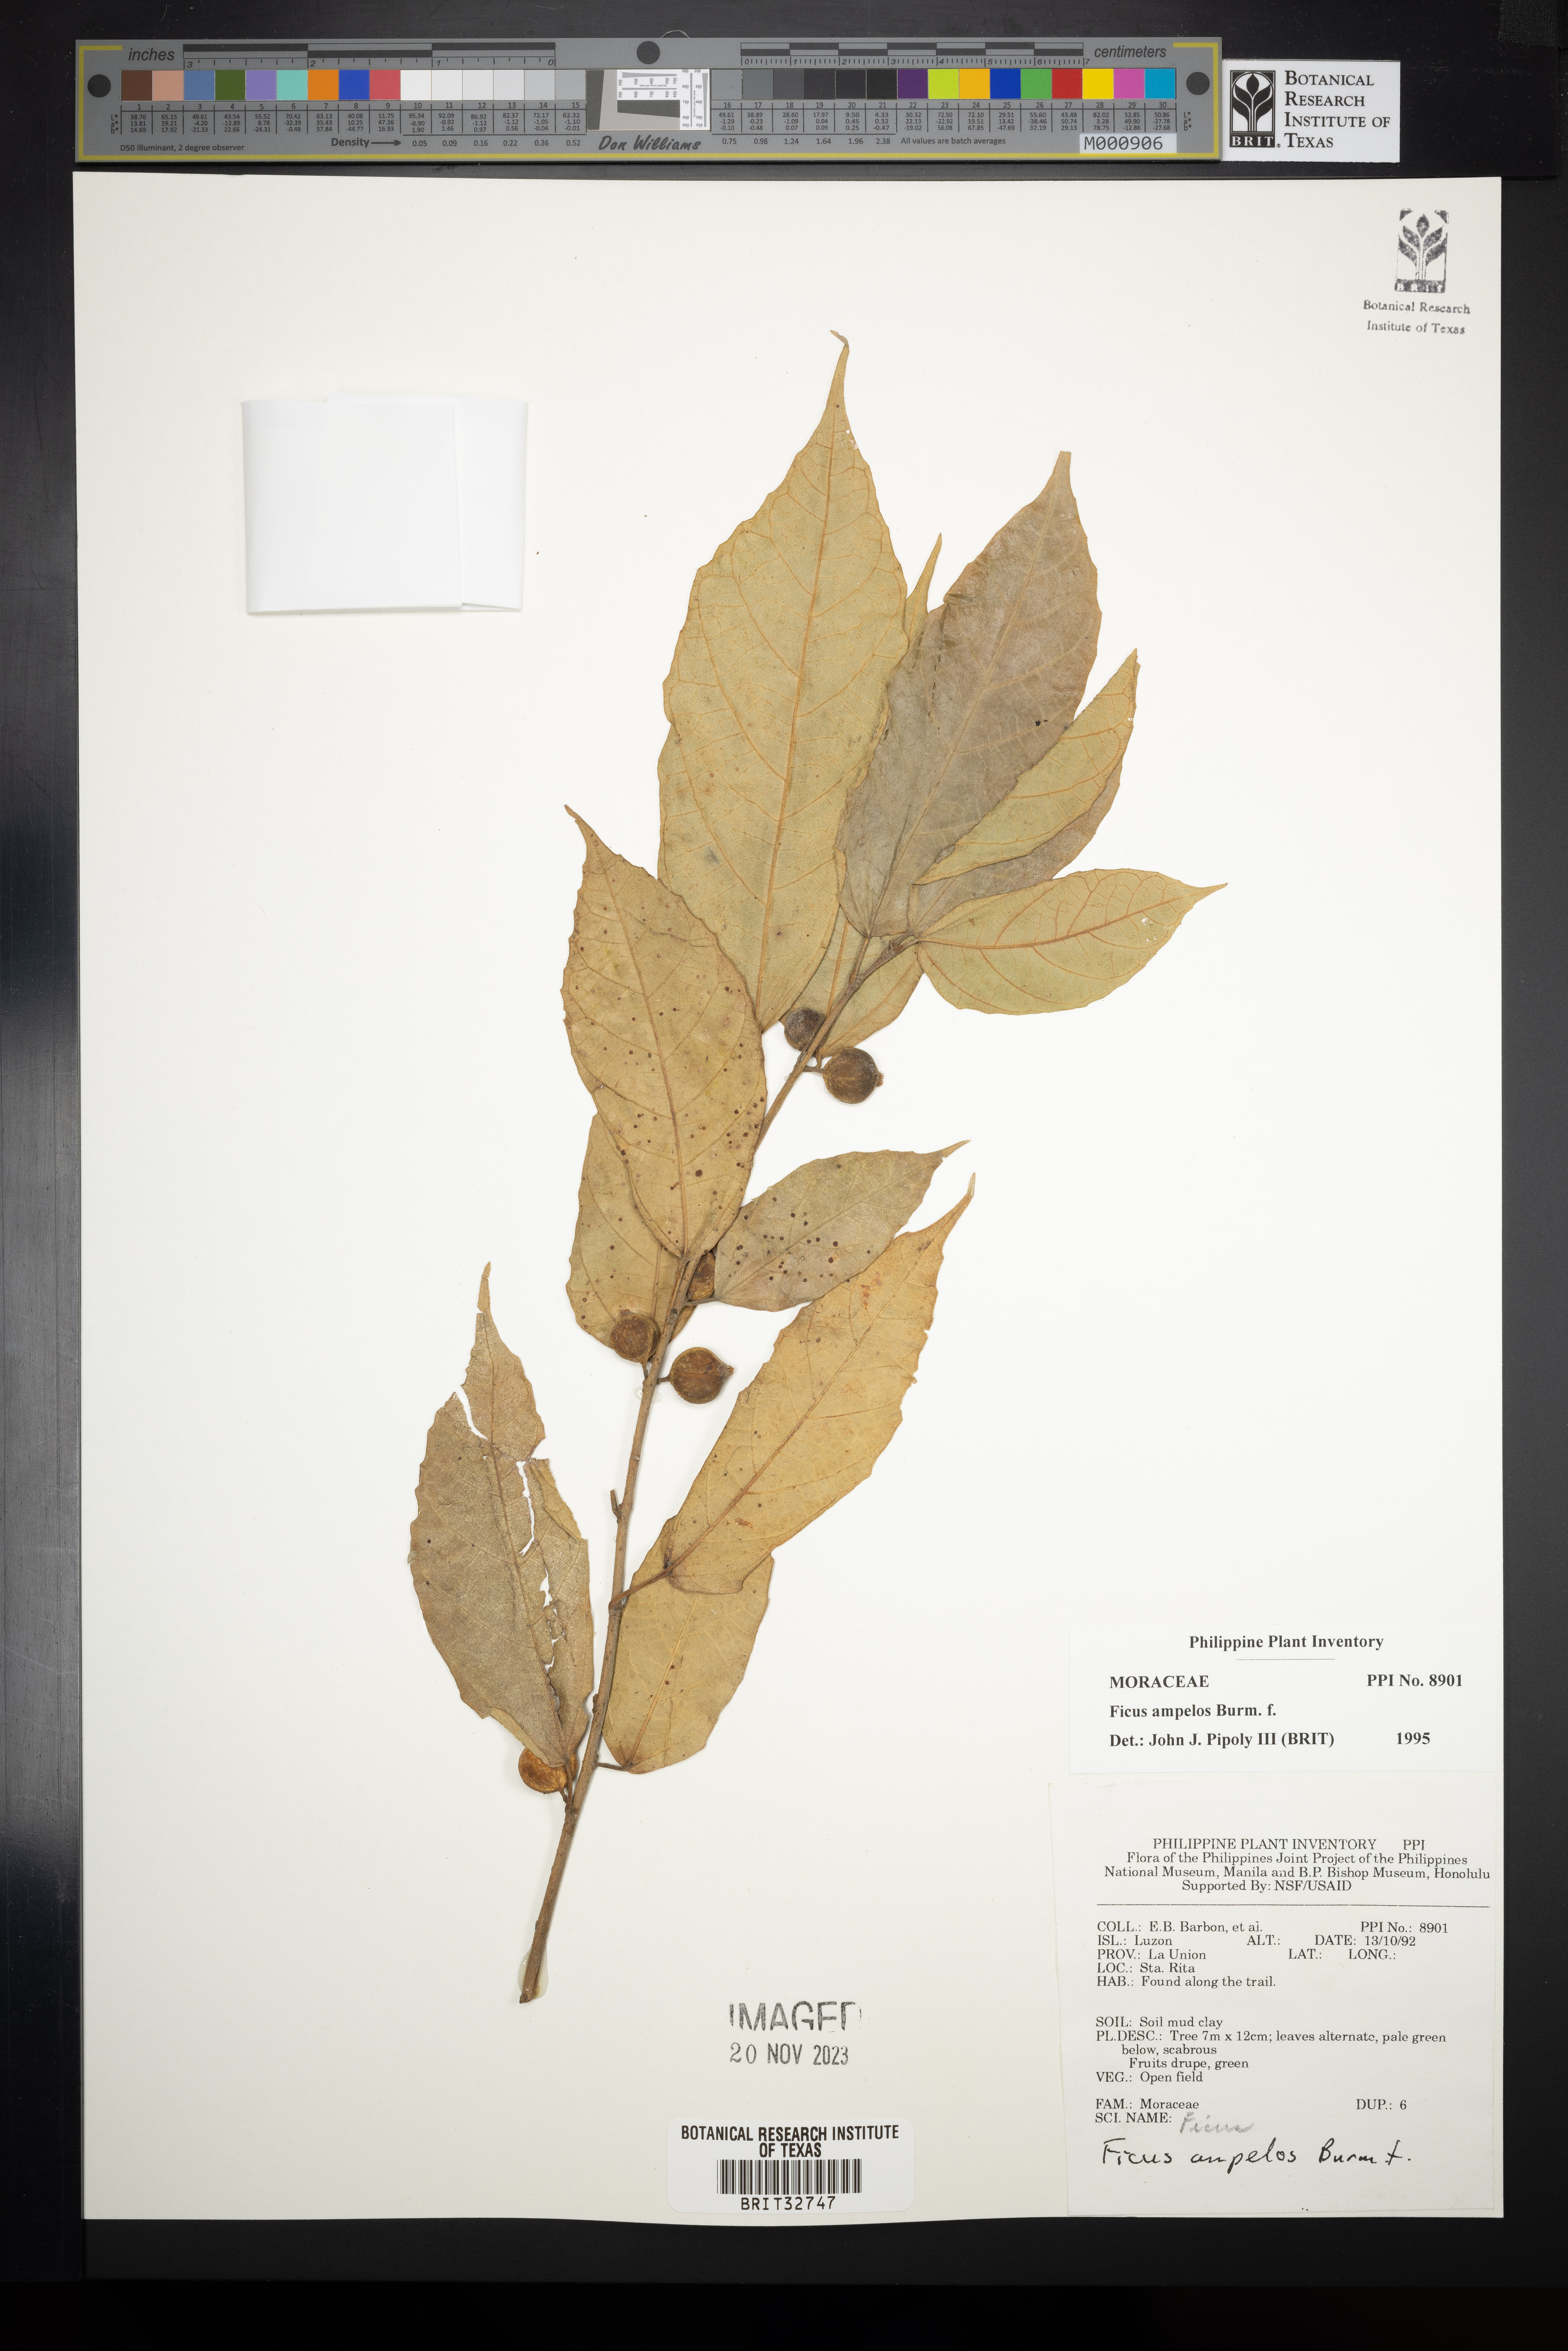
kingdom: Plantae
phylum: Tracheophyta
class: Magnoliopsida
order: Rosales
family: Moraceae
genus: Ficus
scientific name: Ficus ampelos
